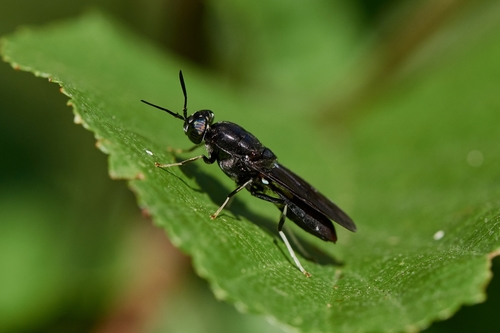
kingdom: Animalia
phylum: Arthropoda
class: Insecta
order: Diptera
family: Stratiomyidae
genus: Hermetia
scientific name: Hermetia illucens
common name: Black soldier fly
